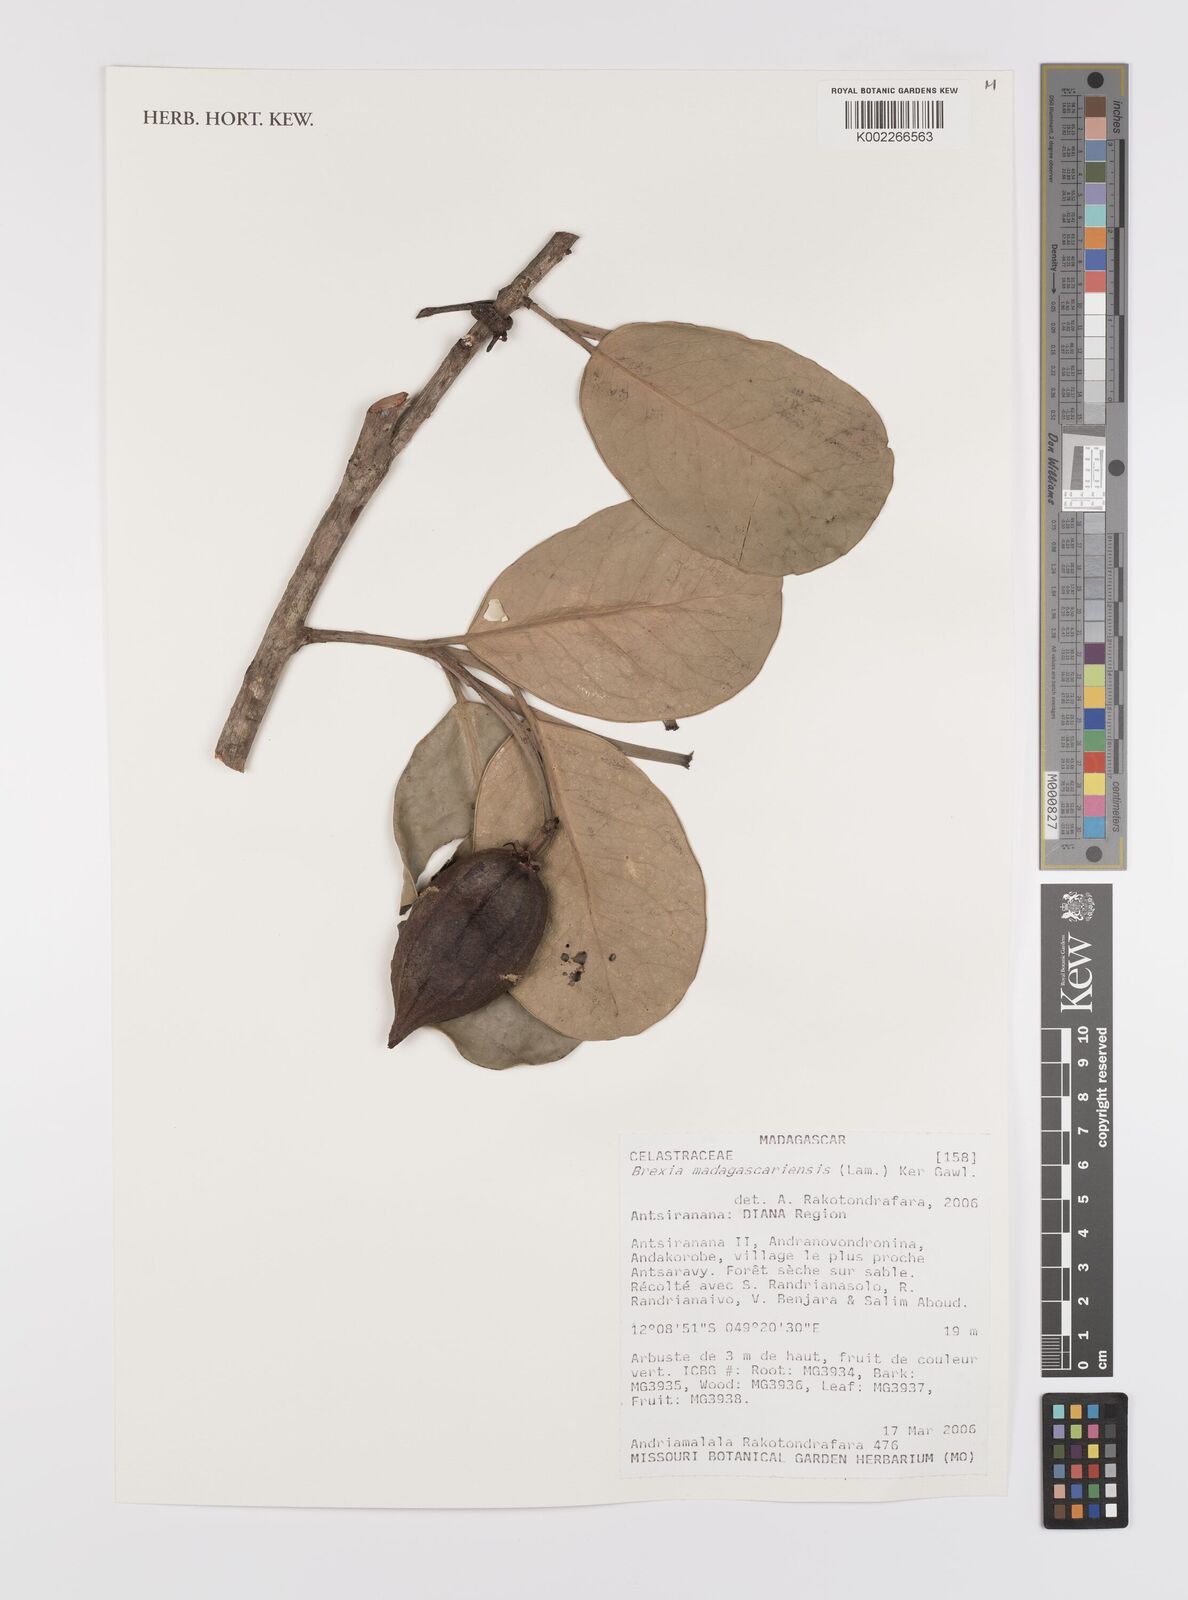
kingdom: Plantae
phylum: Tracheophyta
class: Magnoliopsida
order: Celastrales
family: Celastraceae
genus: Brexia
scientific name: Brexia madagascariensis
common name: Brexia
